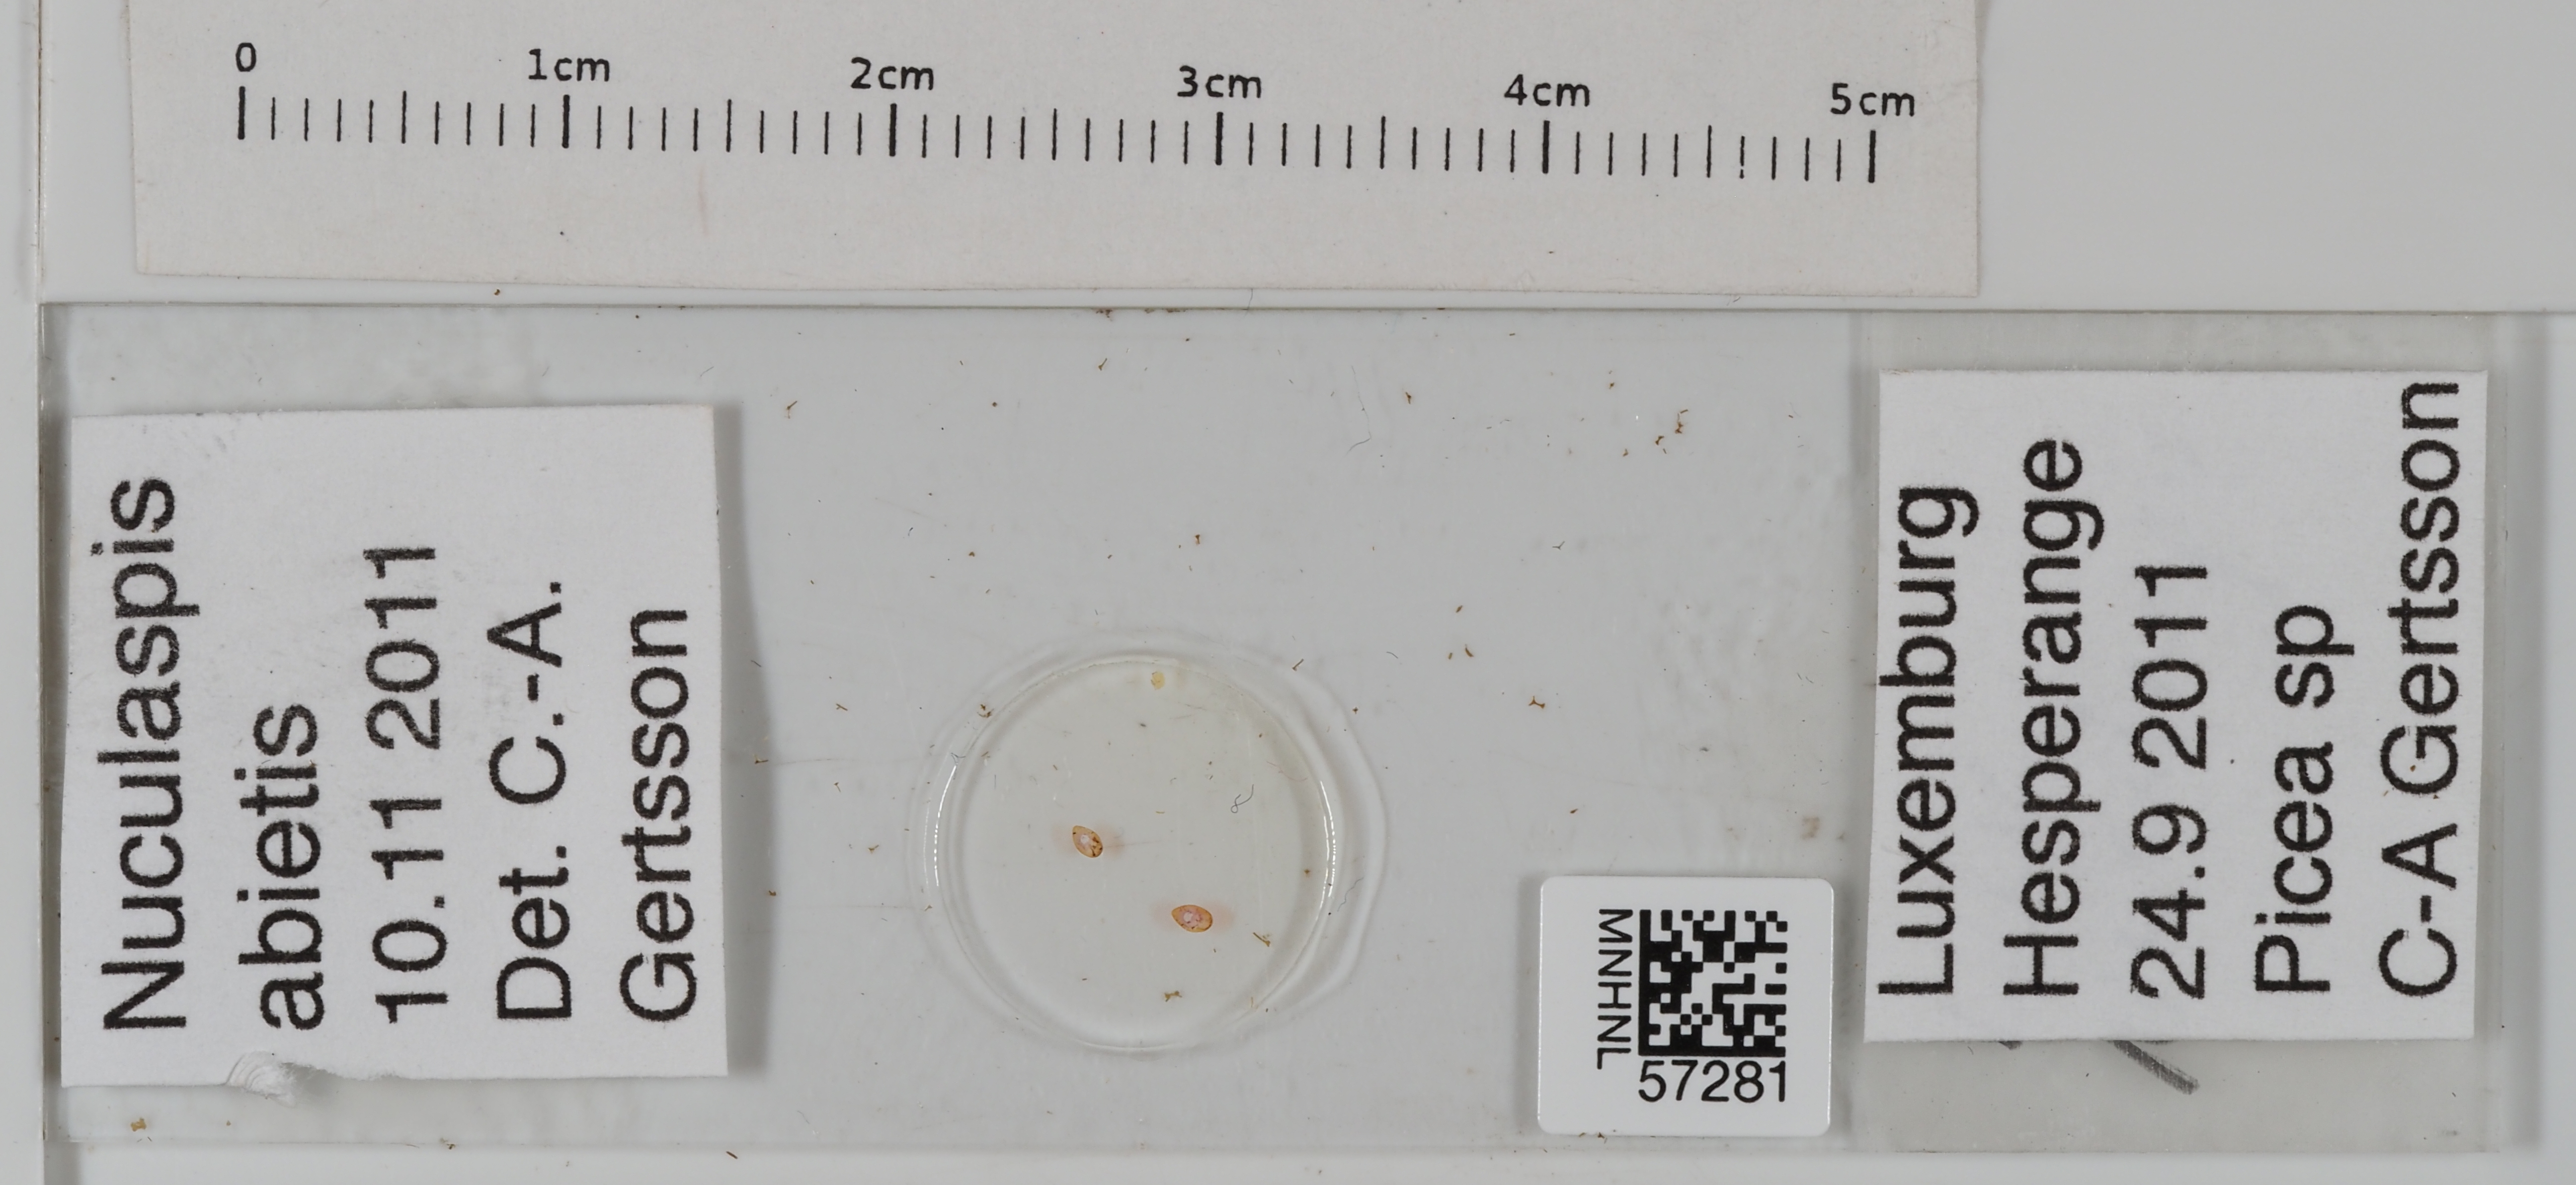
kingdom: Animalia
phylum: Arthropoda
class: Insecta
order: Hemiptera
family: Diaspididae
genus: Dynaspidiotus
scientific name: Dynaspidiotus abietis
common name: Hemlock scale
